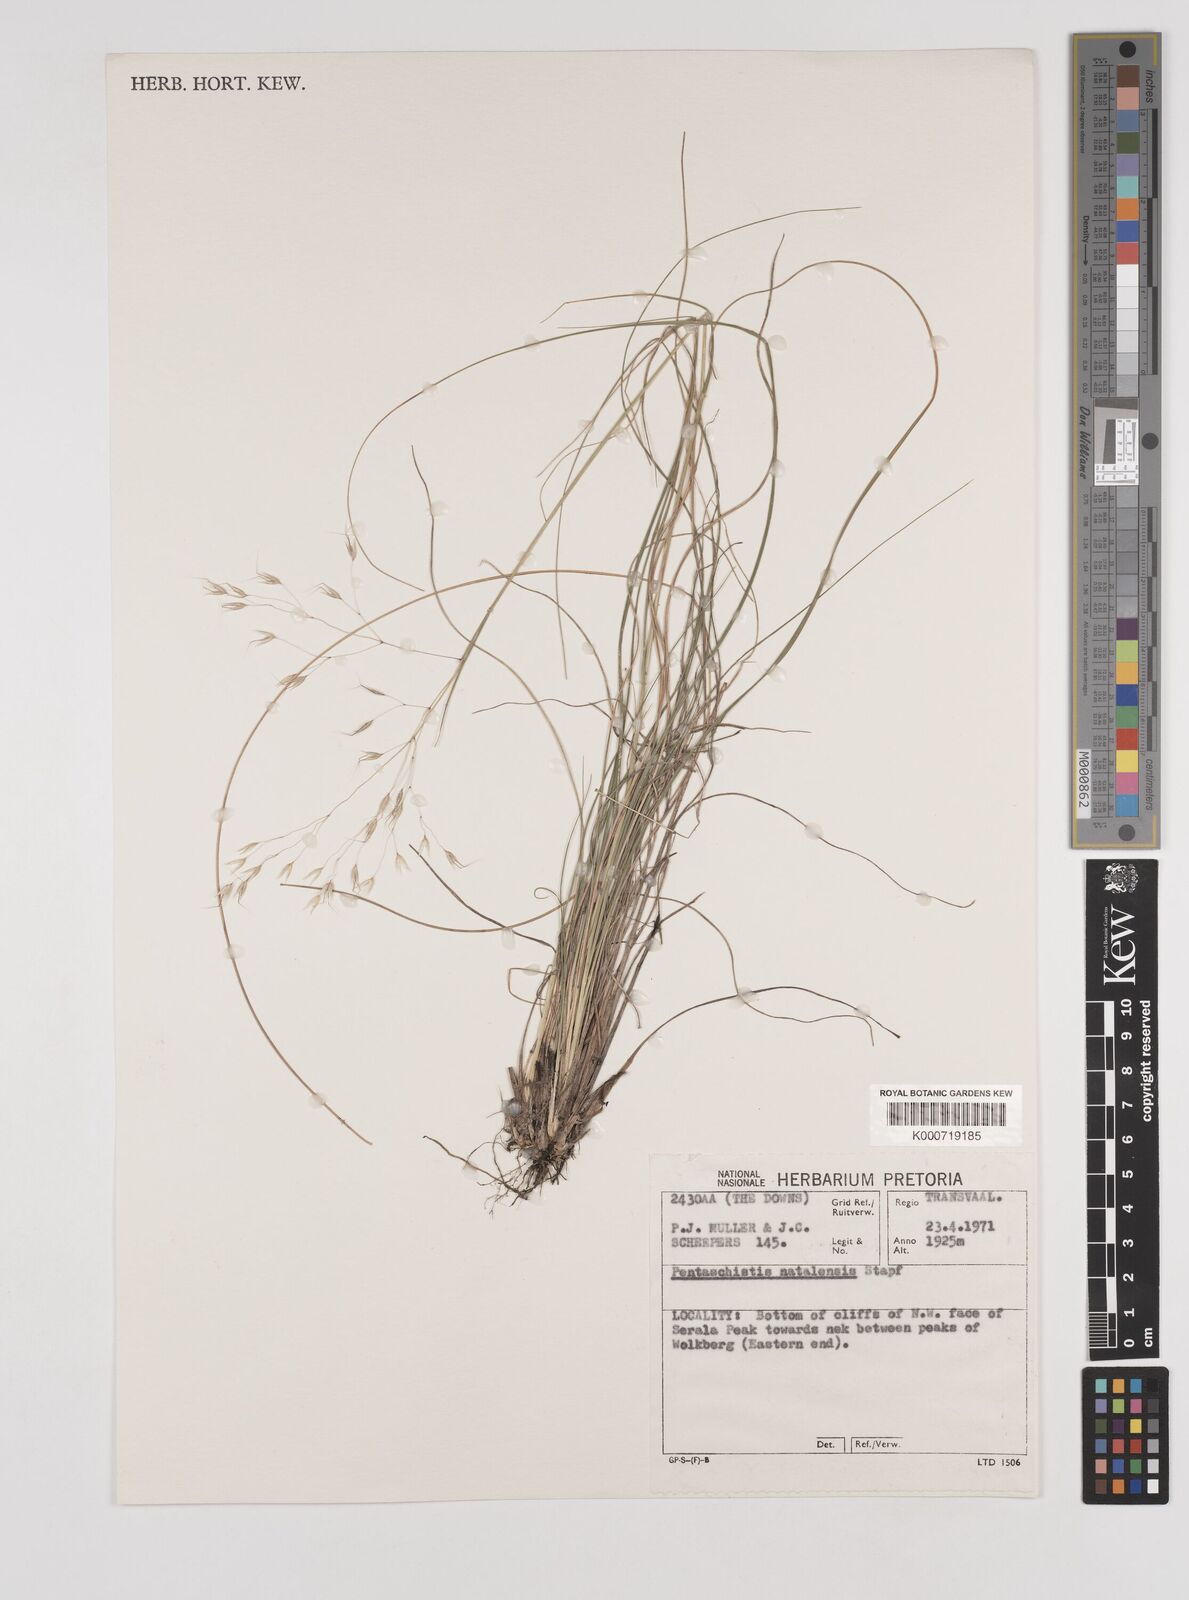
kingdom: Plantae
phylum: Tracheophyta
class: Liliopsida
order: Poales
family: Poaceae
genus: Pentameris
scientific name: Pentameris natalensis
